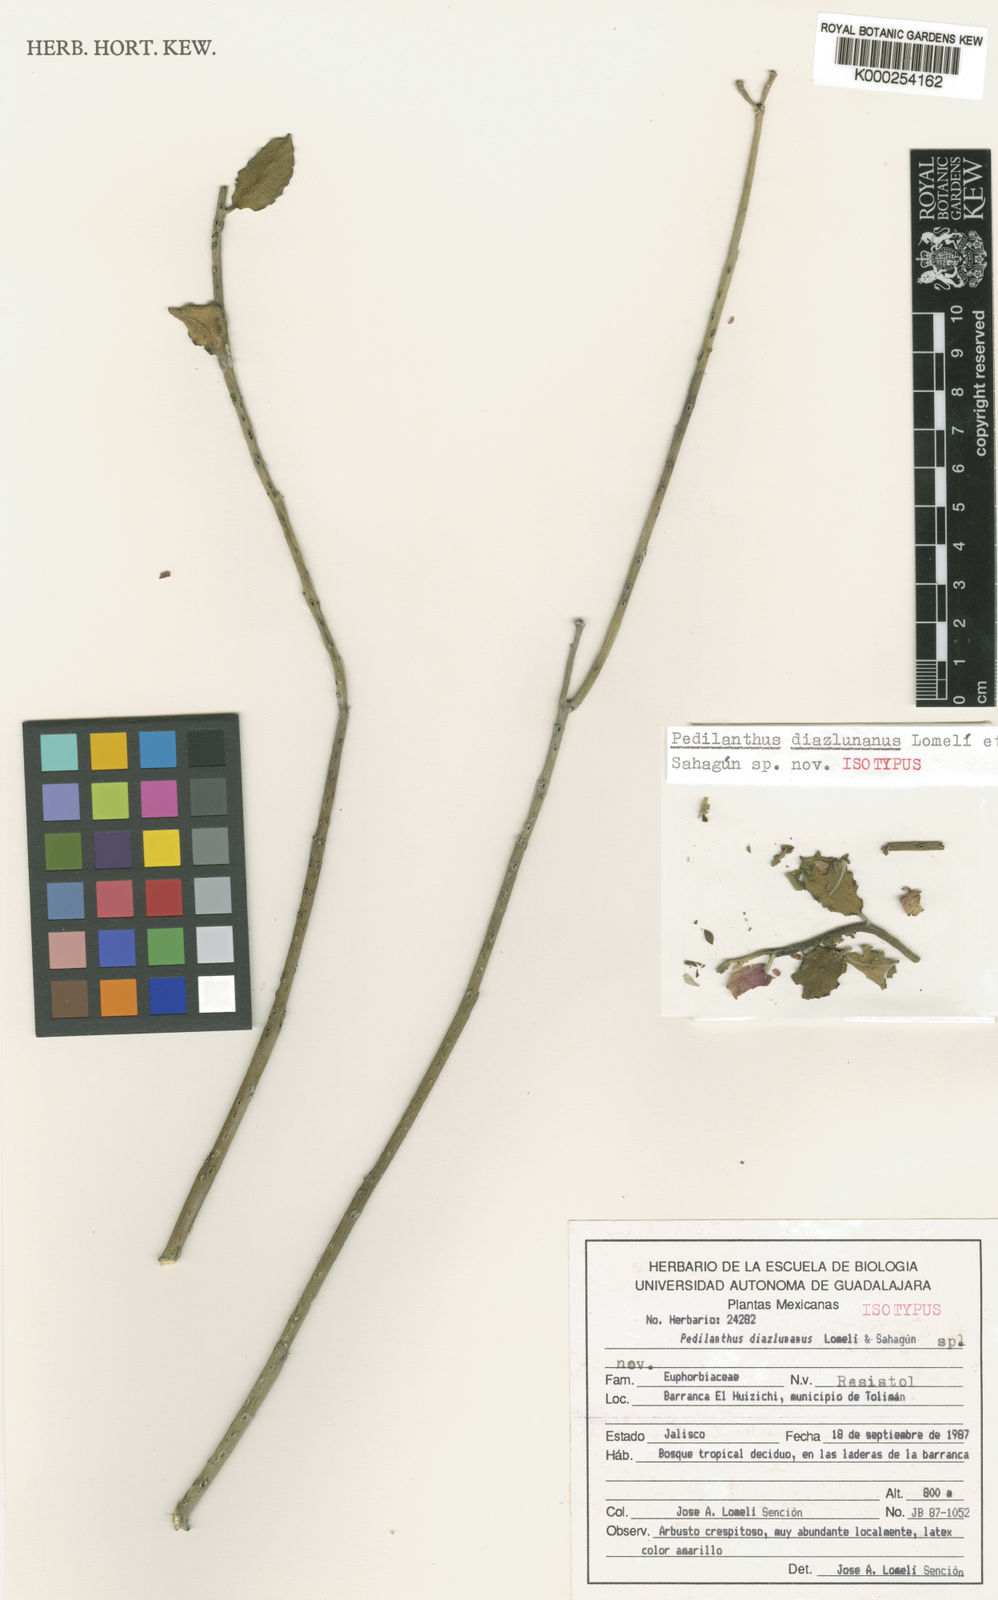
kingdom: Plantae
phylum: Tracheophyta
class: Magnoliopsida
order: Malpighiales
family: Euphorbiaceae
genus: Euphorbia
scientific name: Euphorbia diazlunana
